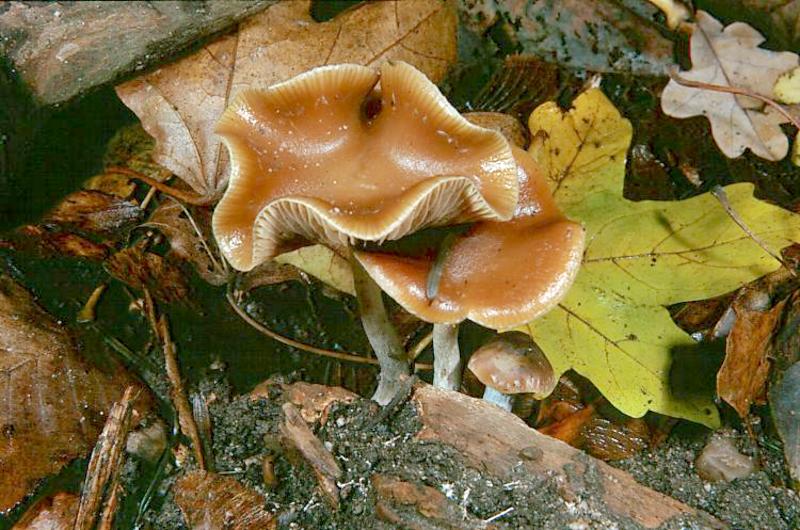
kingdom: Fungi
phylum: Basidiomycota
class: Agaricomycetes
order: Agaricales
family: Hymenogastraceae
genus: Psilocybe
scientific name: Psilocybe cyanescens
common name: Blueleg brownie
